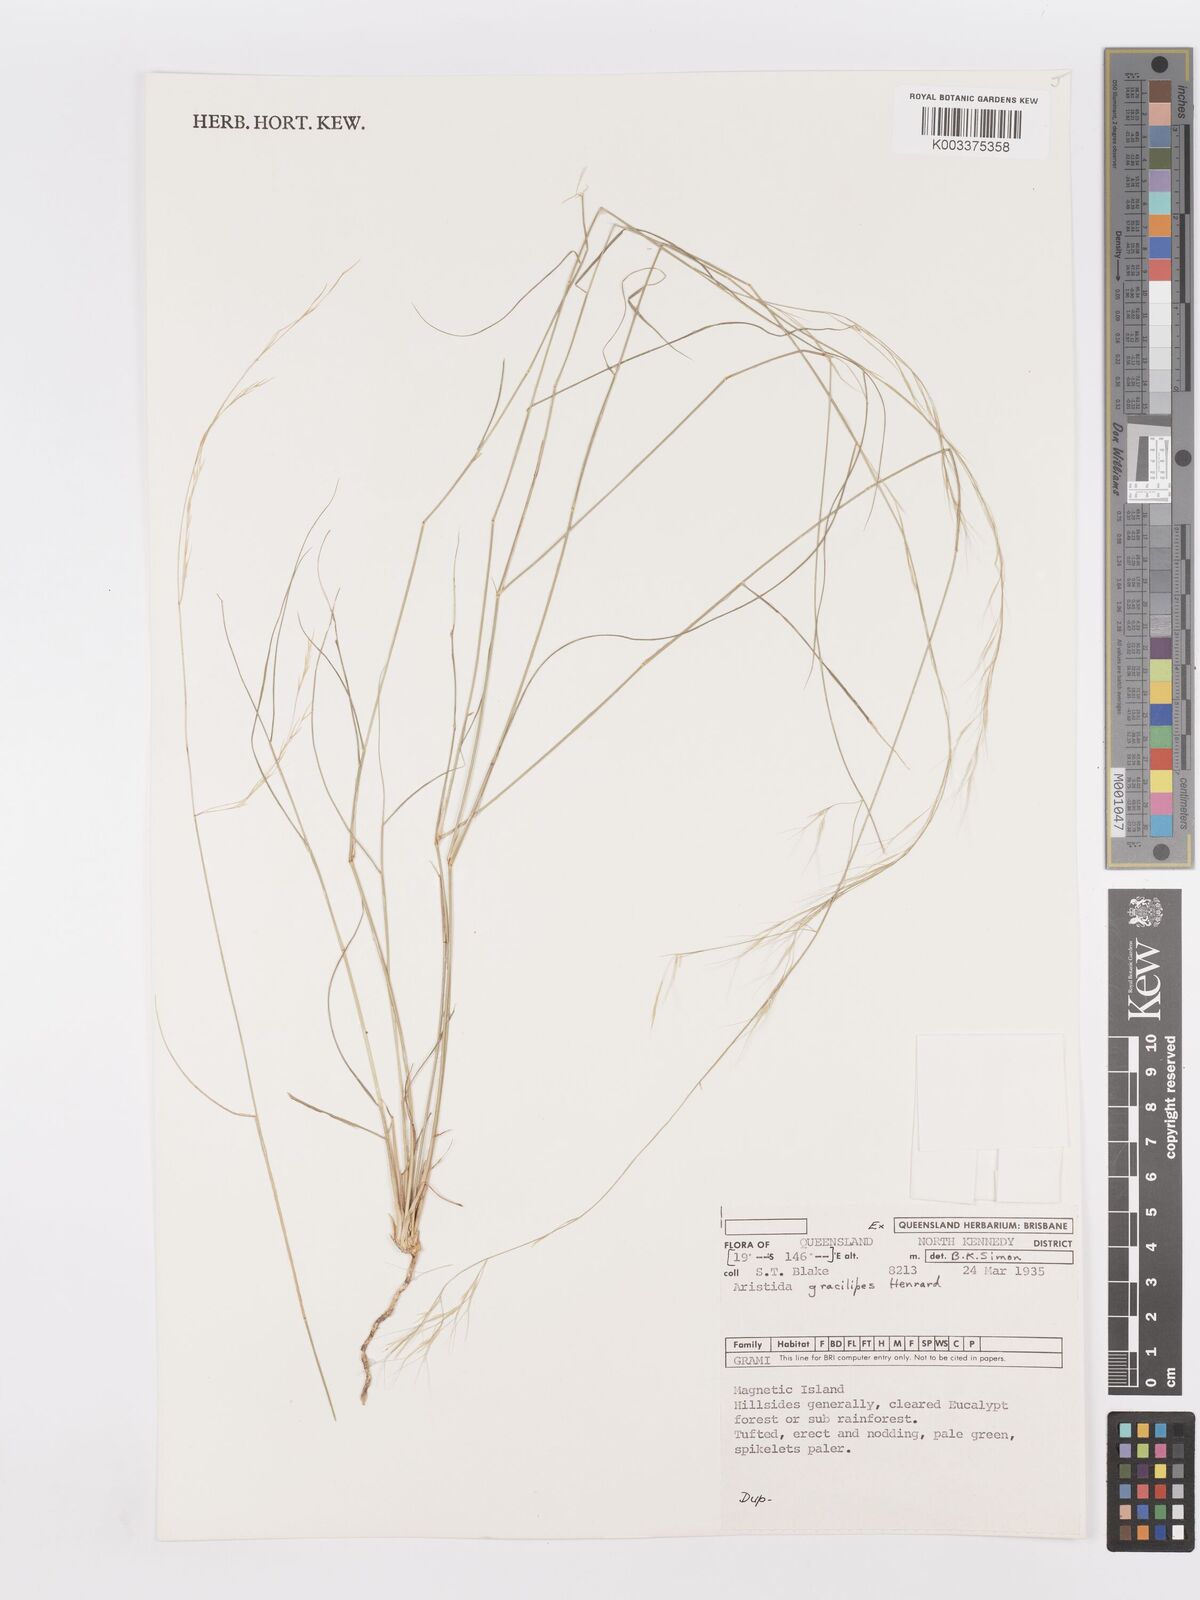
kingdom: Plantae
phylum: Tracheophyta
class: Liliopsida
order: Poales
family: Poaceae
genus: Aristida
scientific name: Aristida gracilipes
